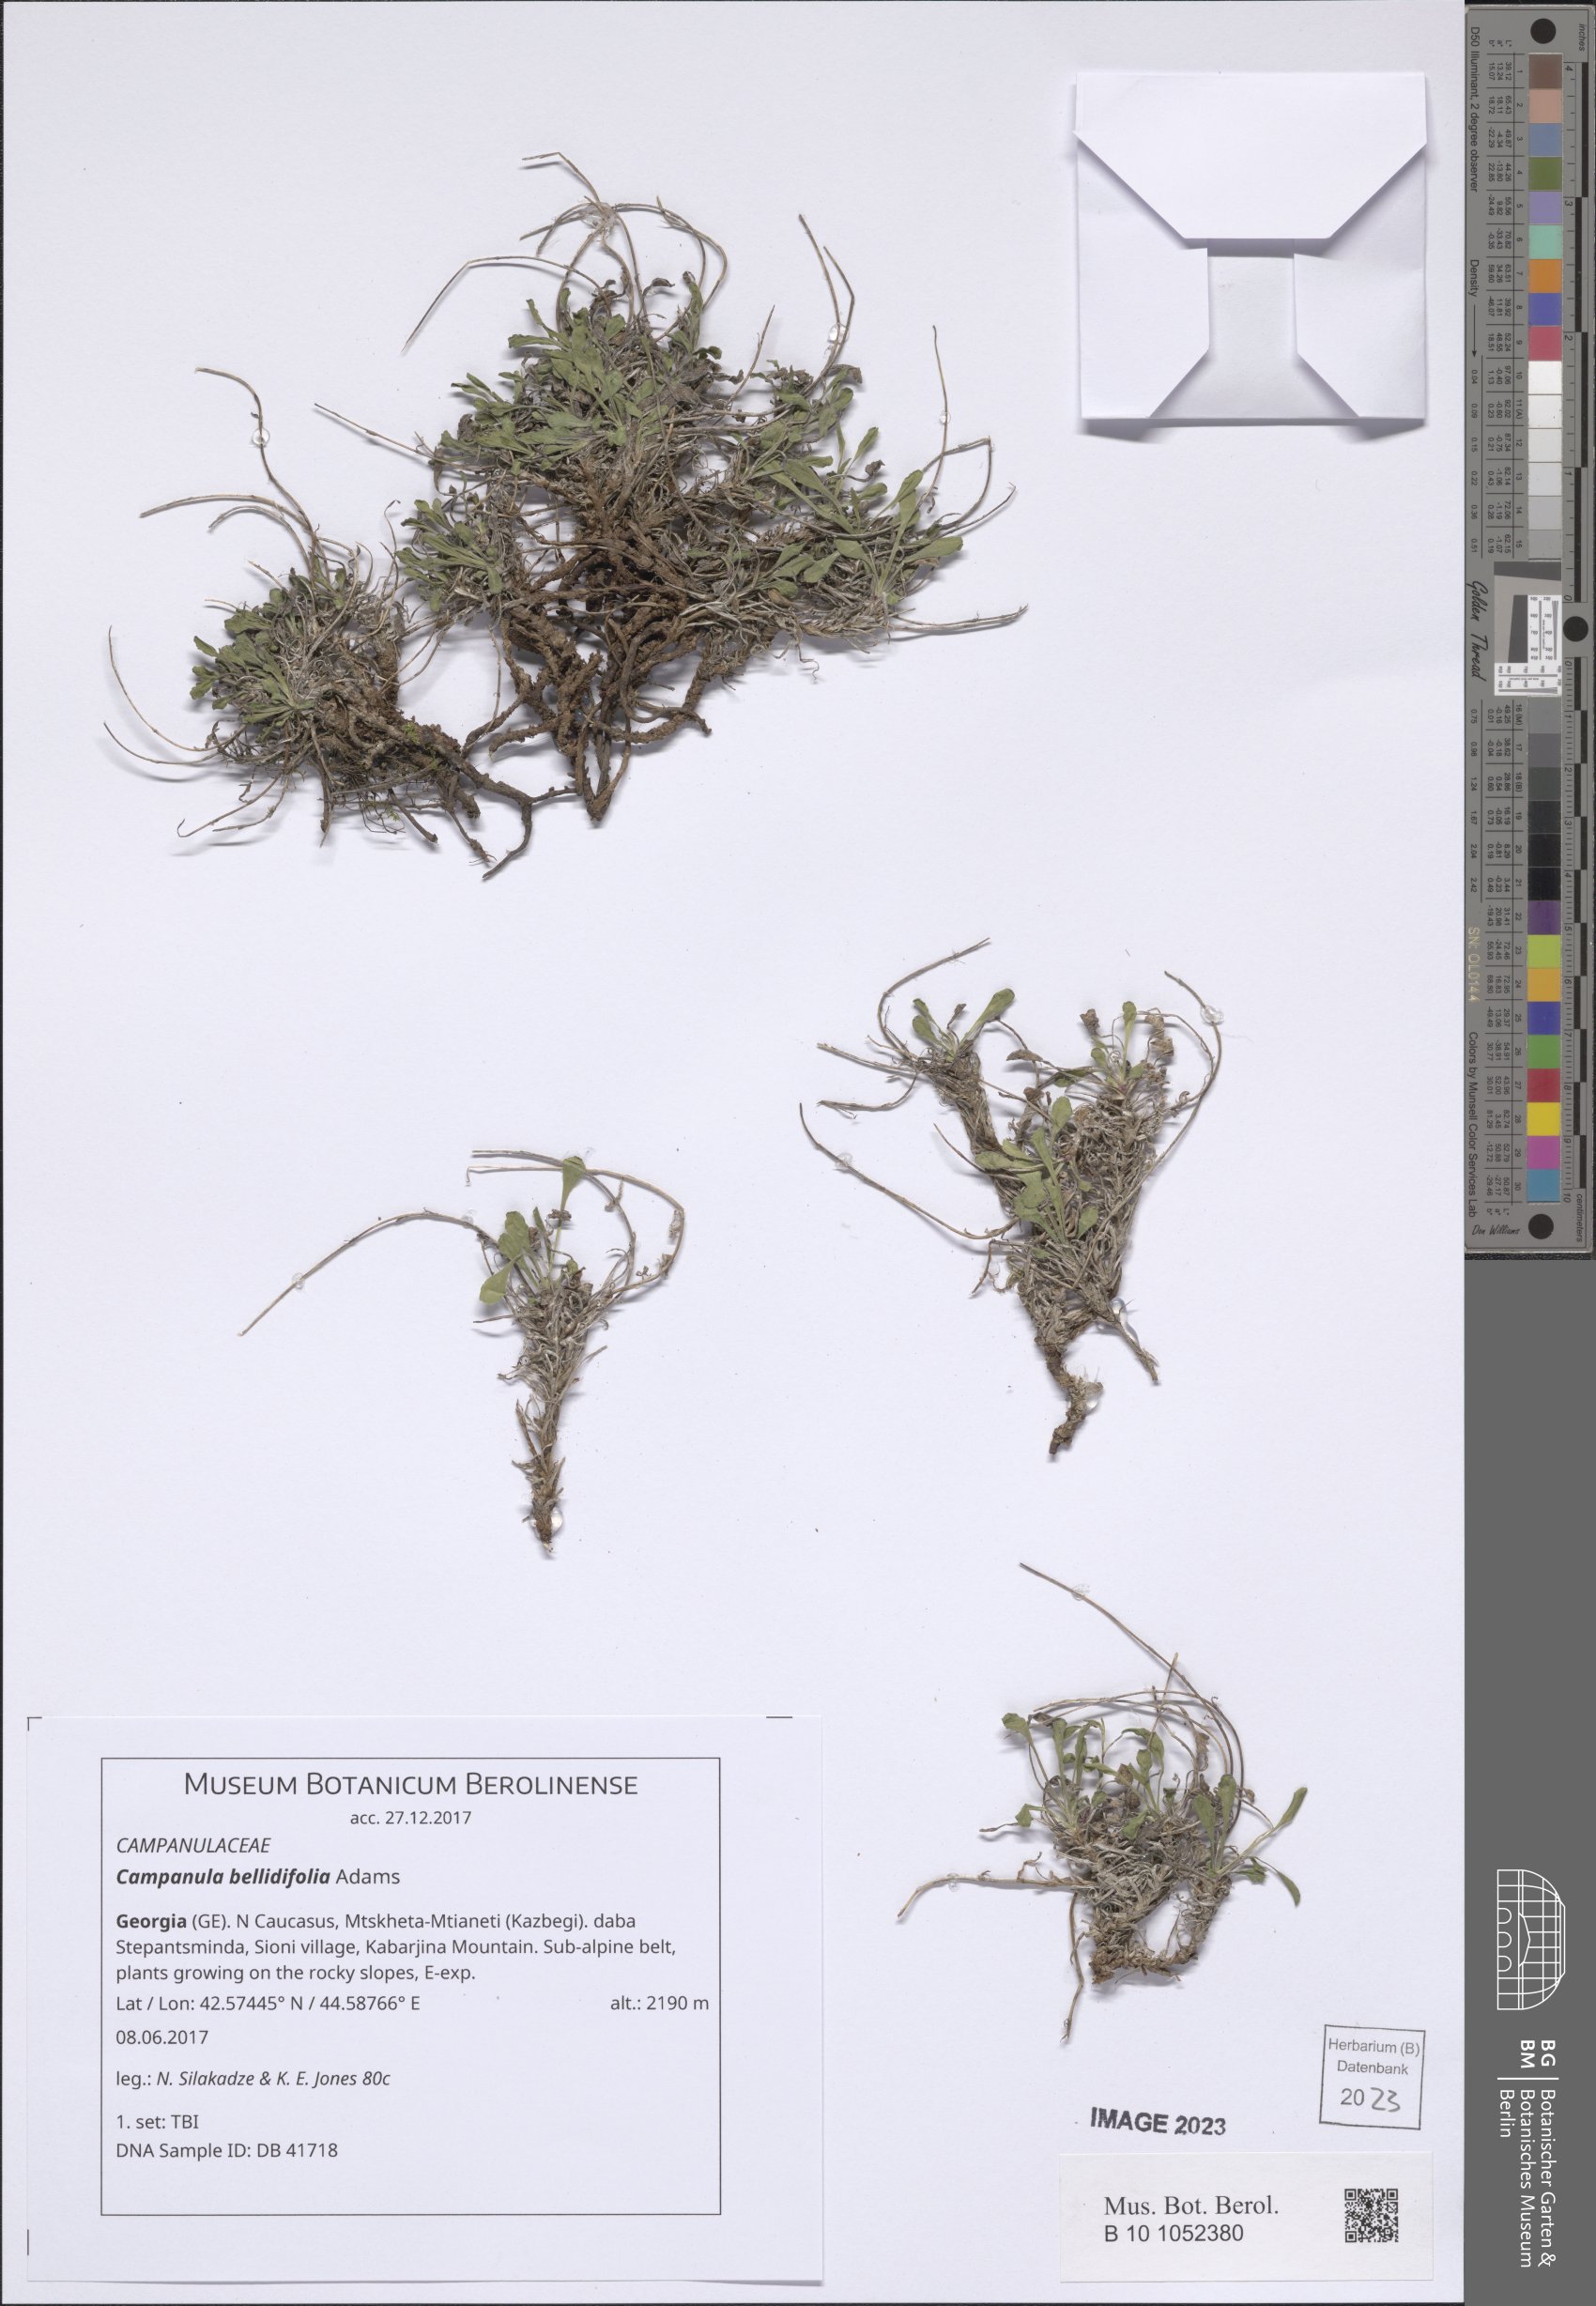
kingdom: Plantae
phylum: Tracheophyta
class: Magnoliopsida
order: Asterales
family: Campanulaceae
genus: Campanula
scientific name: Campanula bellidifolia
